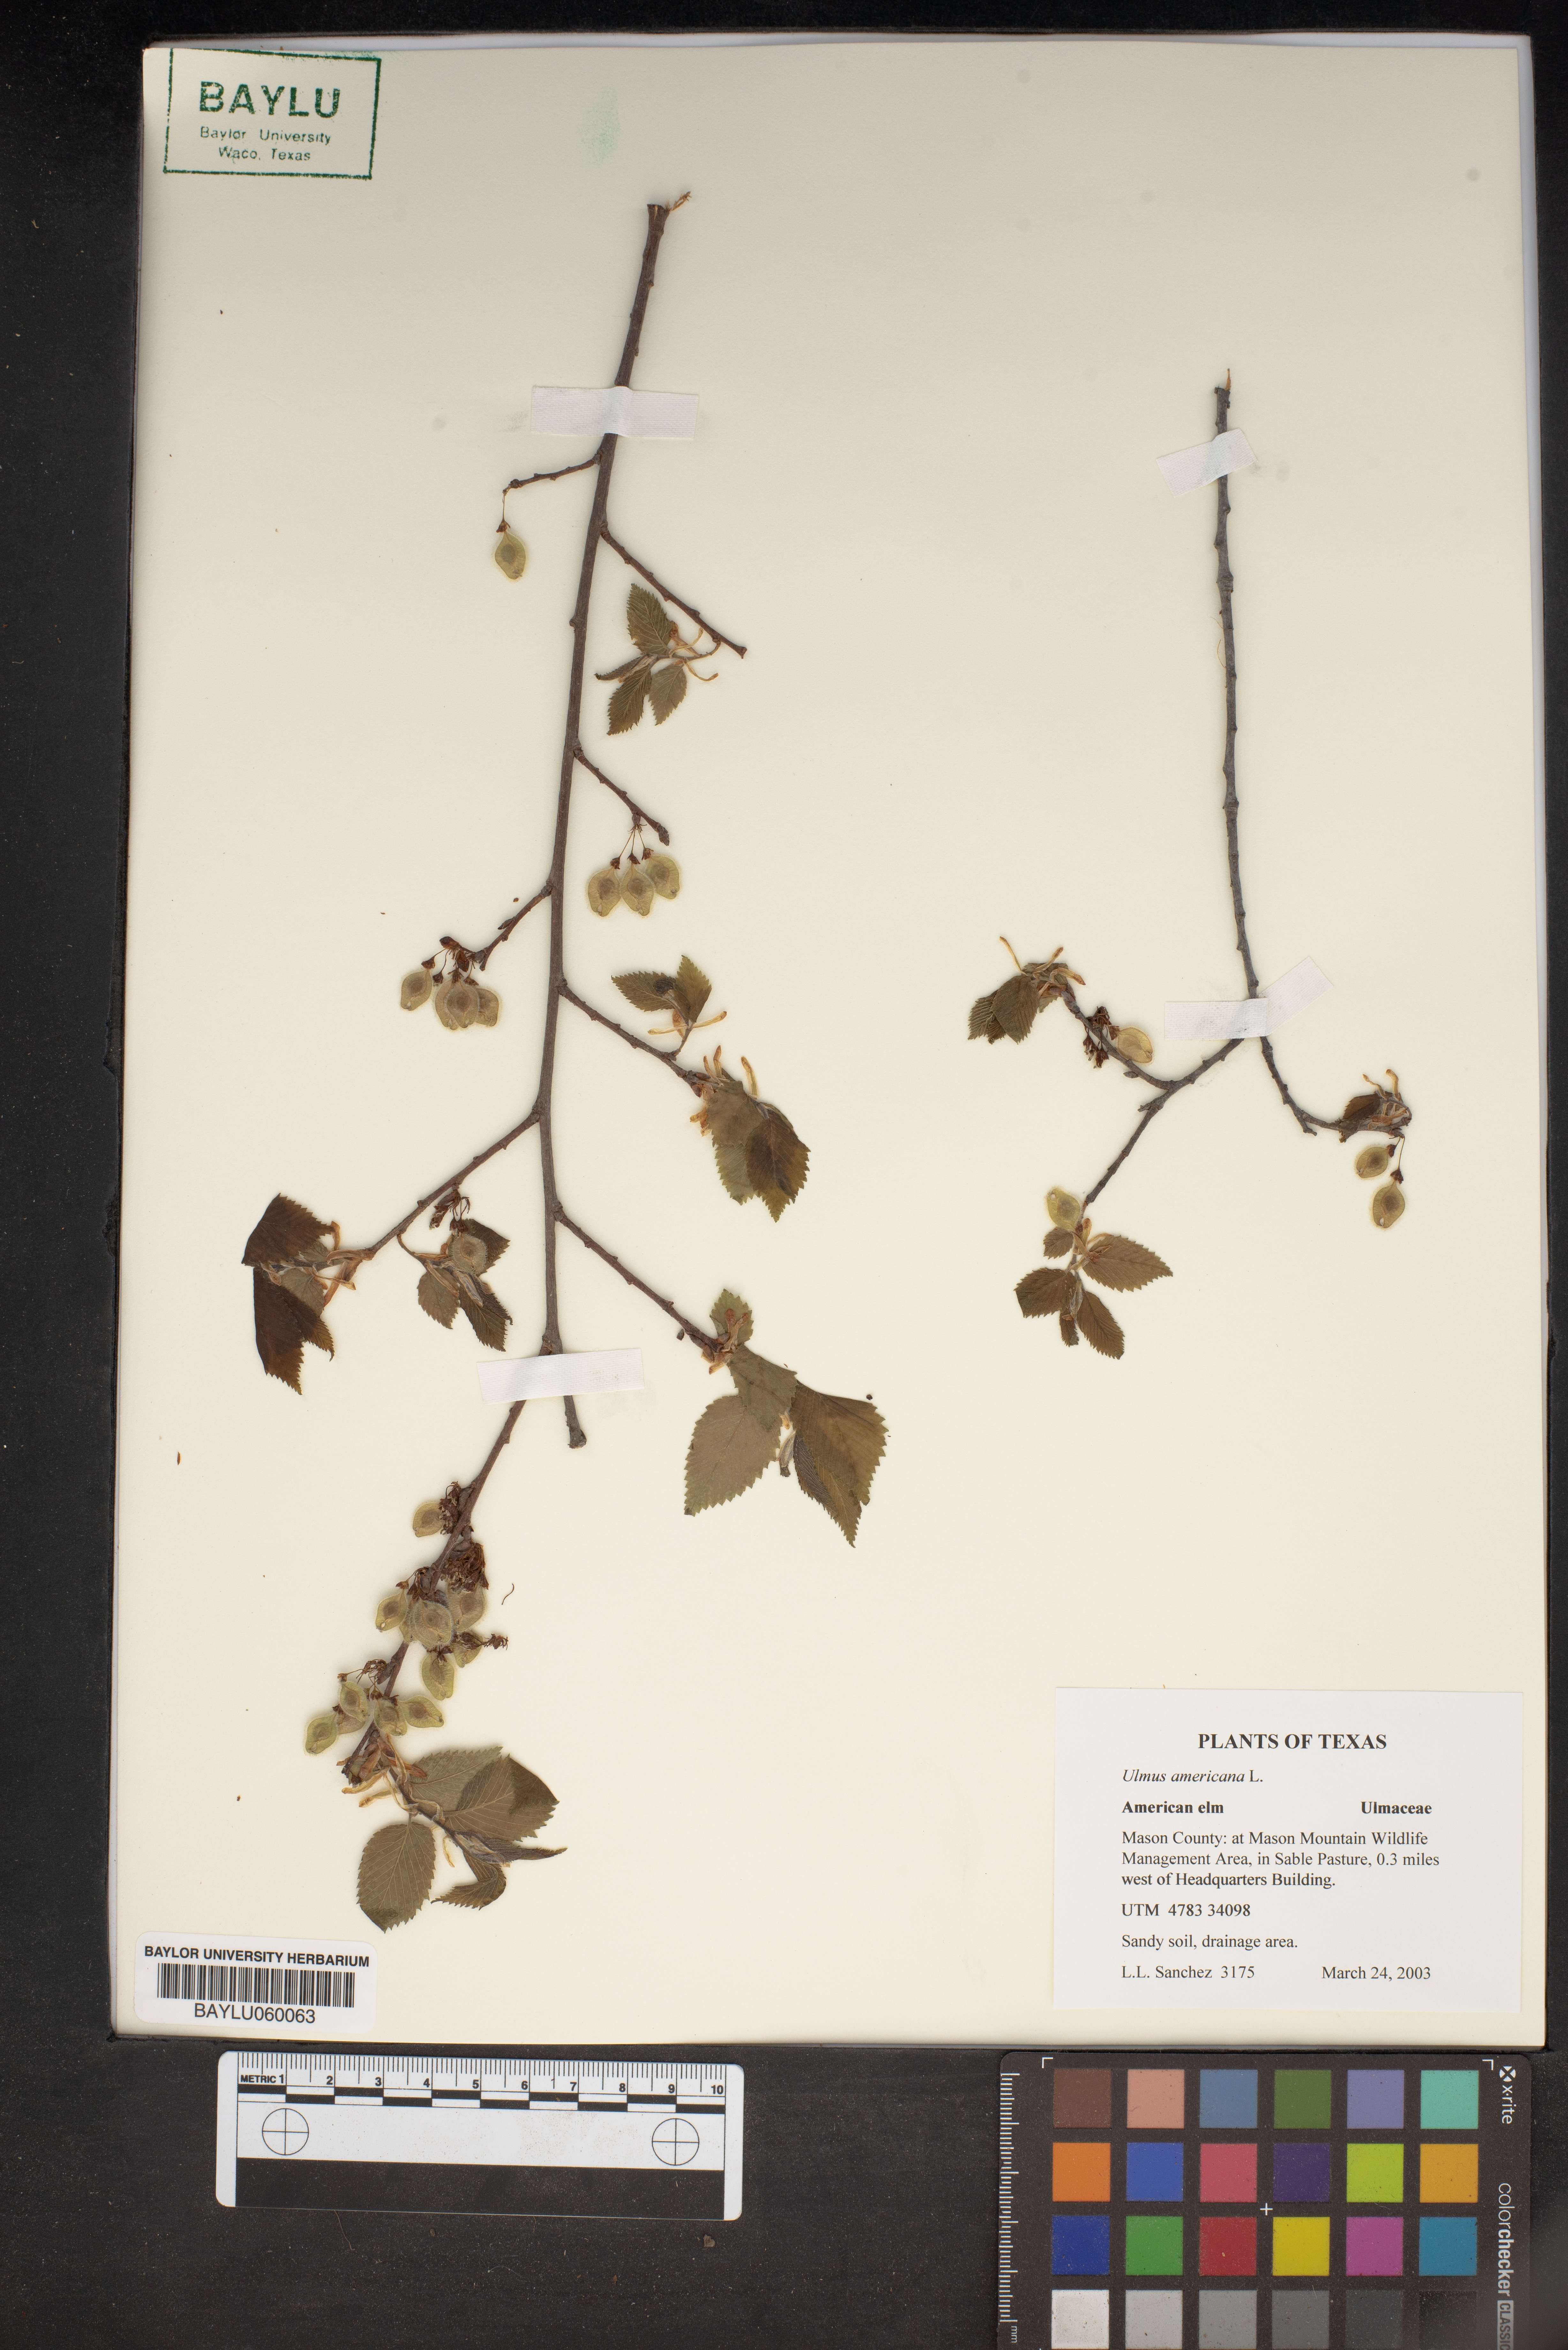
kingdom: Plantae
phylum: Tracheophyta
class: Magnoliopsida
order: Rosales
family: Ulmaceae
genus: Ulmus
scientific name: Ulmus americana
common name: American elm
